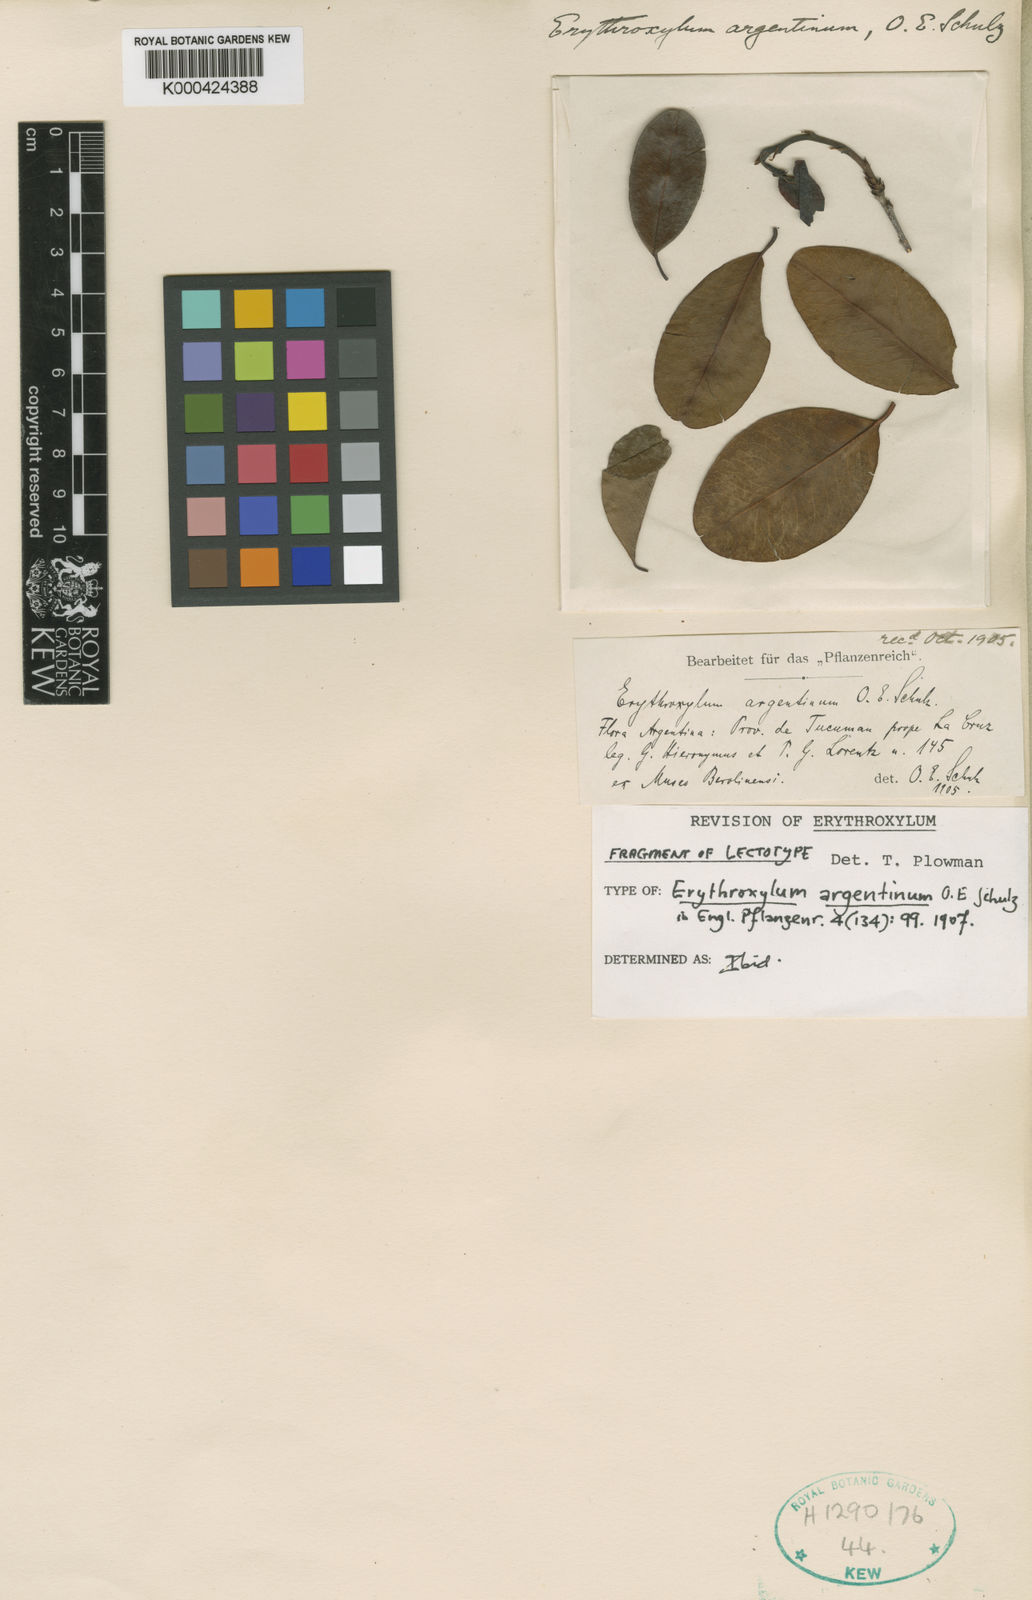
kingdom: Plantae
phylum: Tracheophyta
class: Magnoliopsida
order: Malpighiales
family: Erythroxylaceae
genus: Erythroxylum
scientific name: Erythroxylum argentinum
